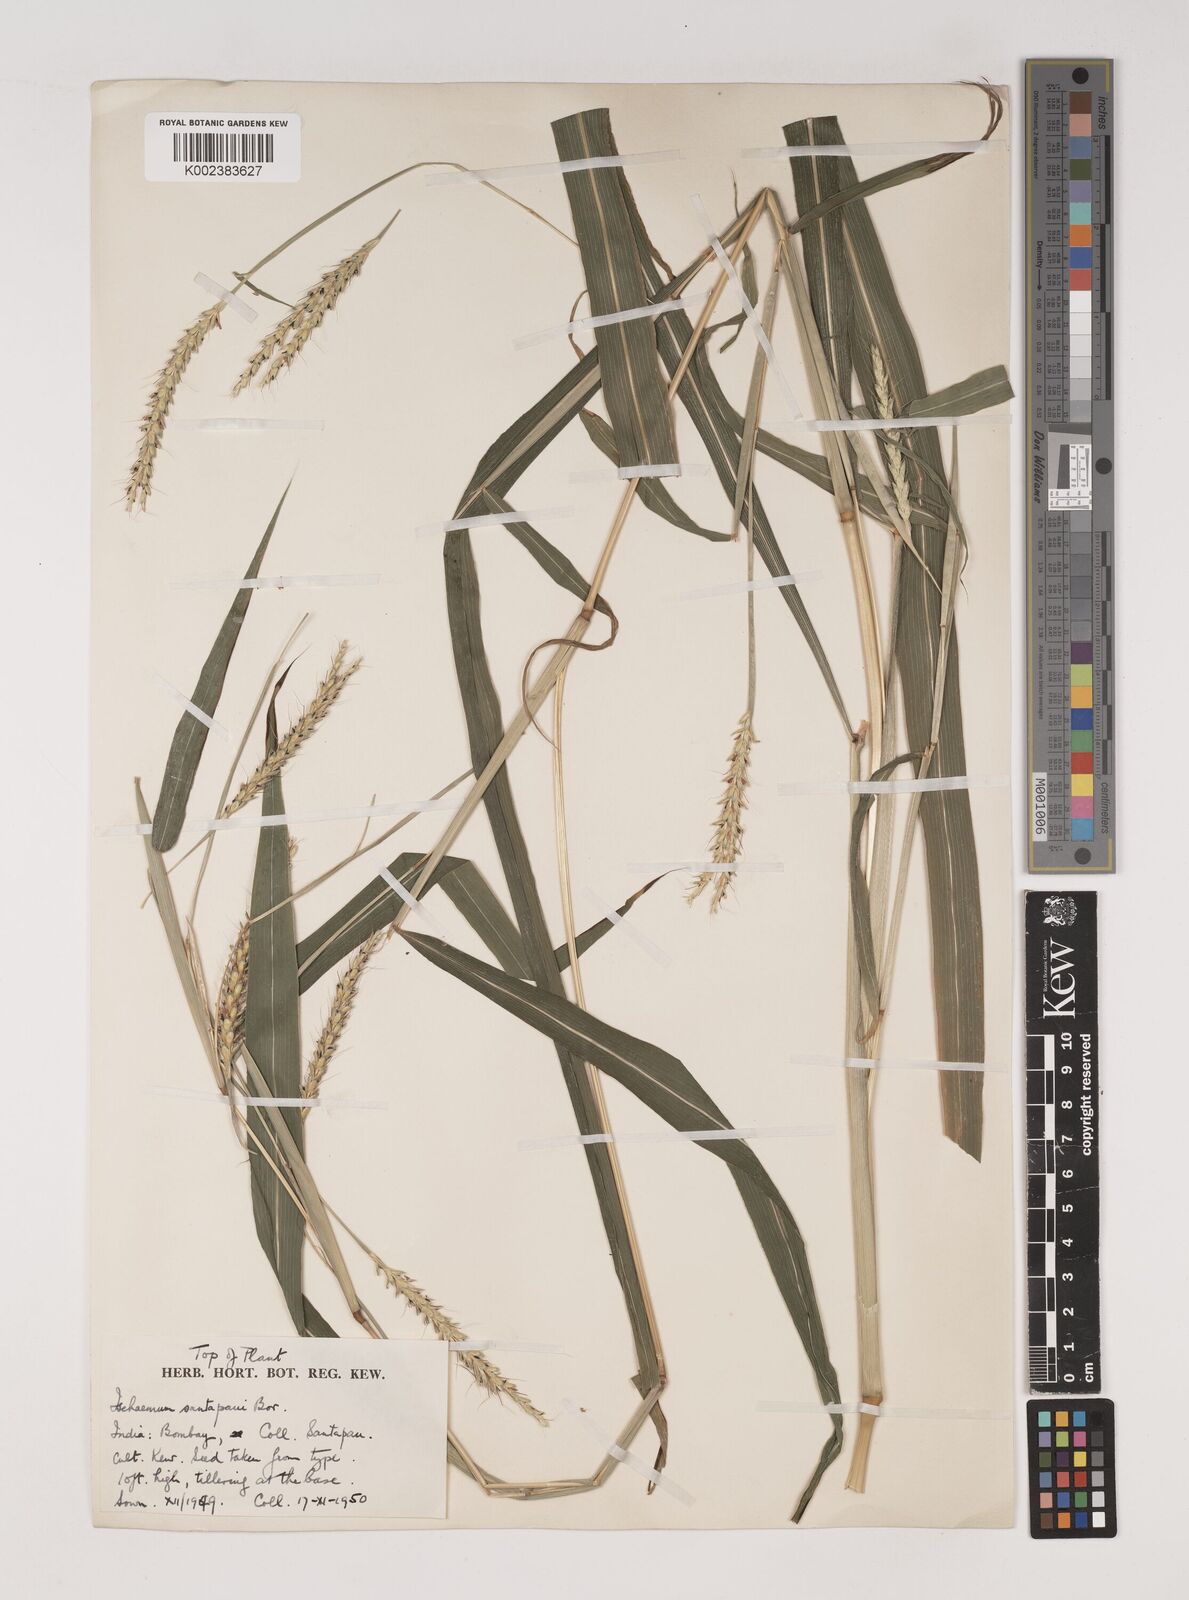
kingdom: Plantae
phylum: Tracheophyta
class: Liliopsida
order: Poales
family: Poaceae
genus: Ischaemum
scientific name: Ischaemum santapaui
